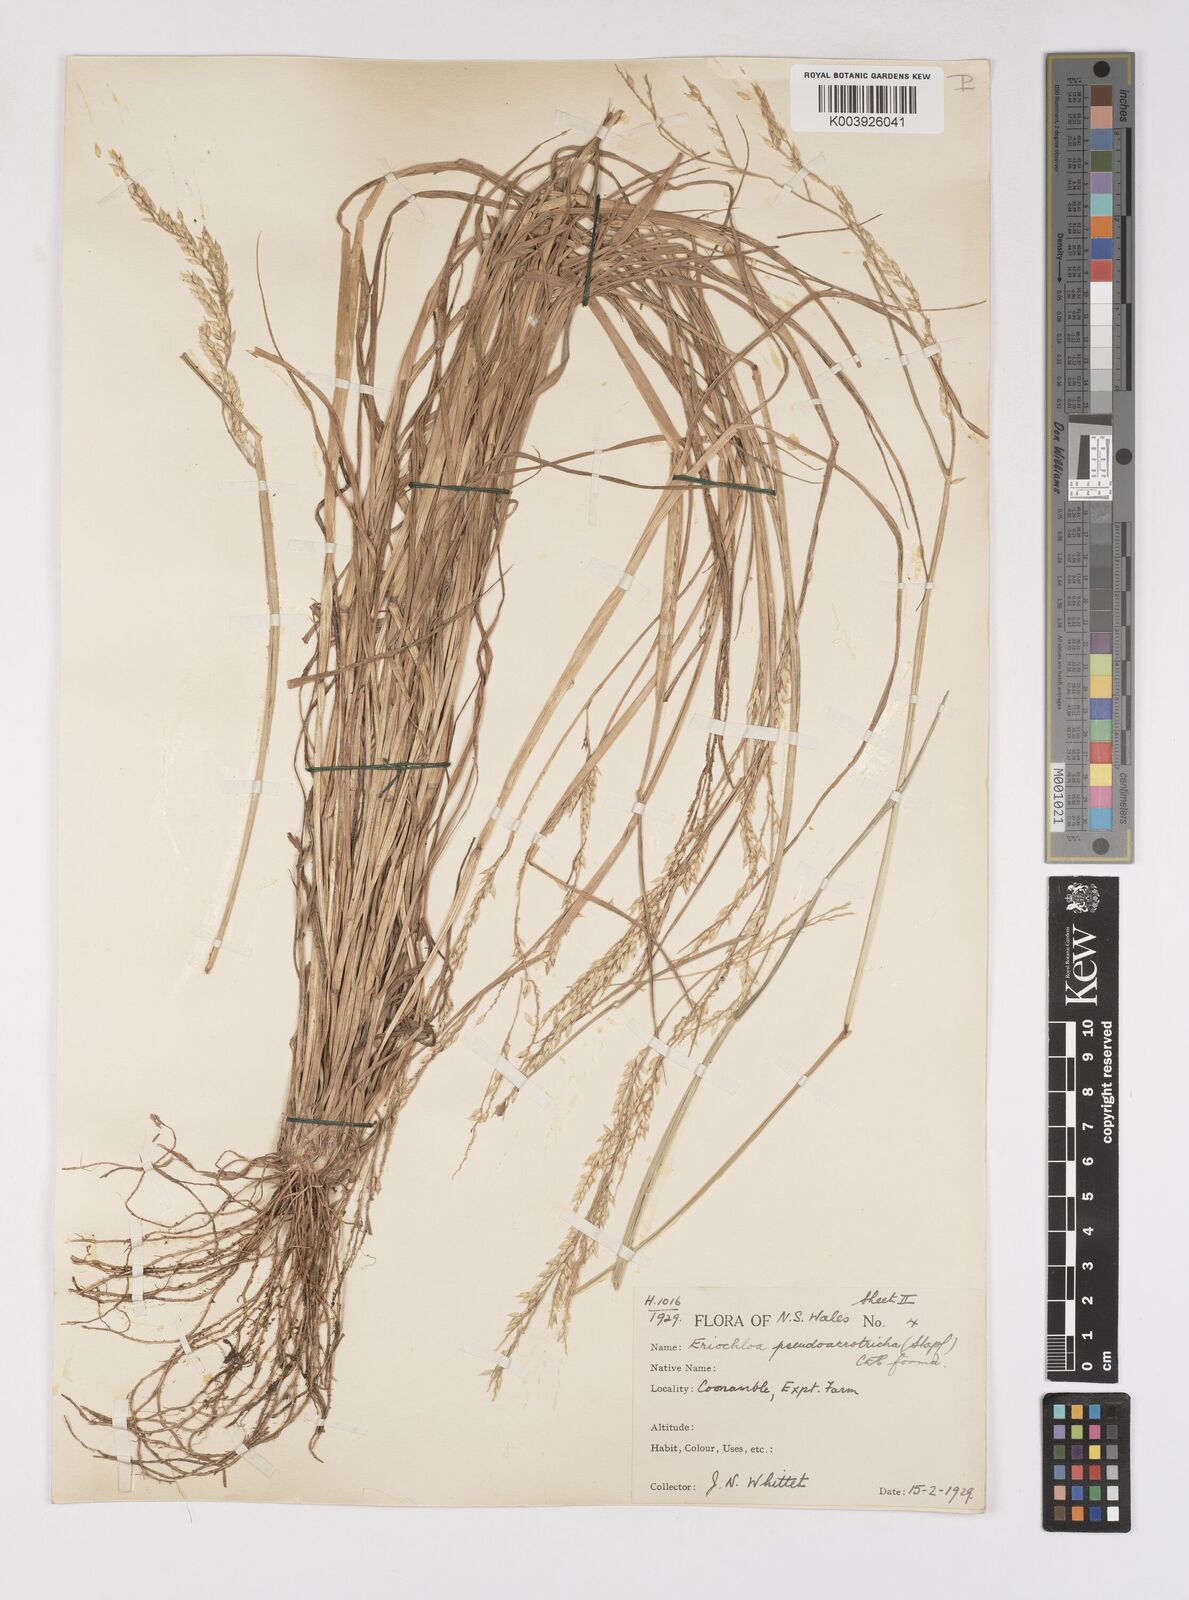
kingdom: Plantae
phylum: Tracheophyta
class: Liliopsida
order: Poales
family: Poaceae
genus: Eriochloa
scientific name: Eriochloa pseudoacrotricha
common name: Perennial cup-grass
